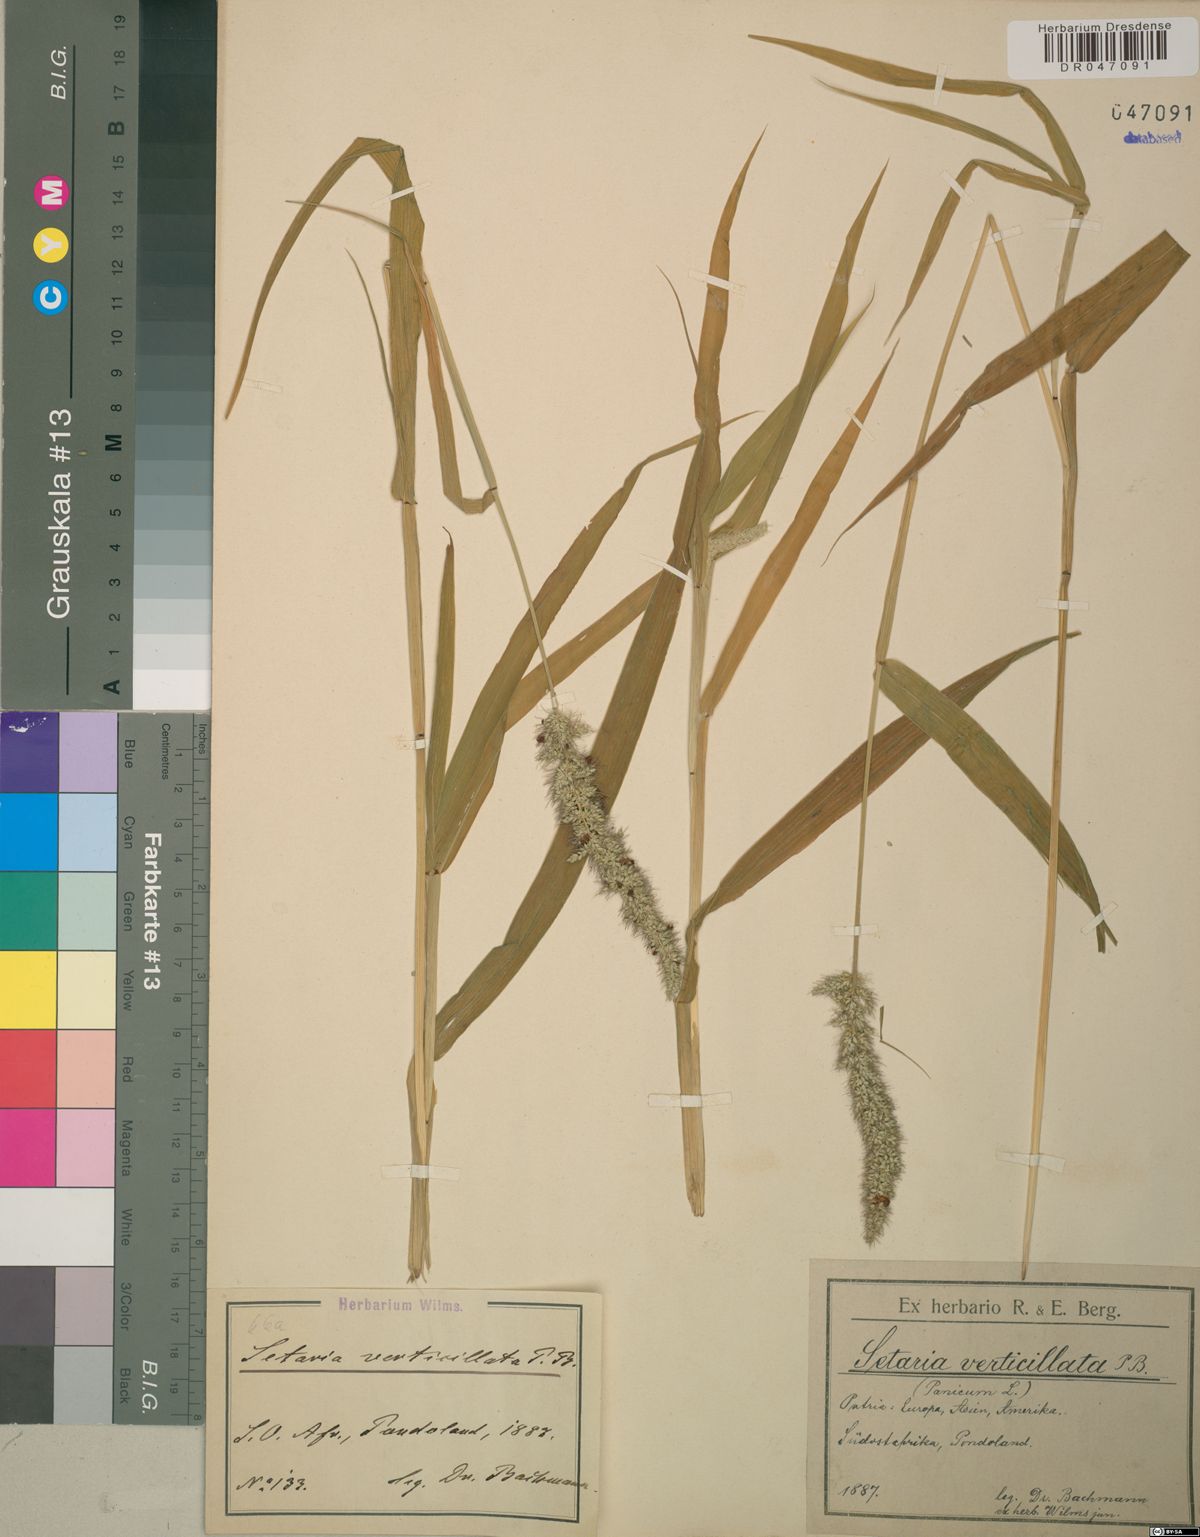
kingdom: Plantae
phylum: Tracheophyta
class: Liliopsida
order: Poales
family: Poaceae
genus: Setaria
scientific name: Setaria verticillata
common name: Hooked bristlegrass
